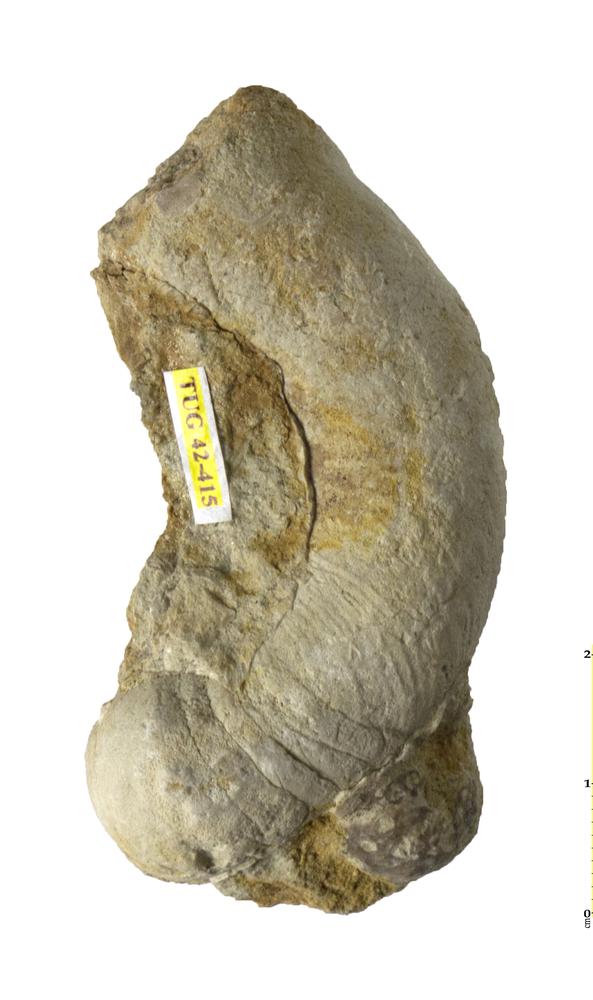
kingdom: Animalia
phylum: Mollusca
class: Cephalopoda
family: Lituitidae
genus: Lituites
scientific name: Lituites
